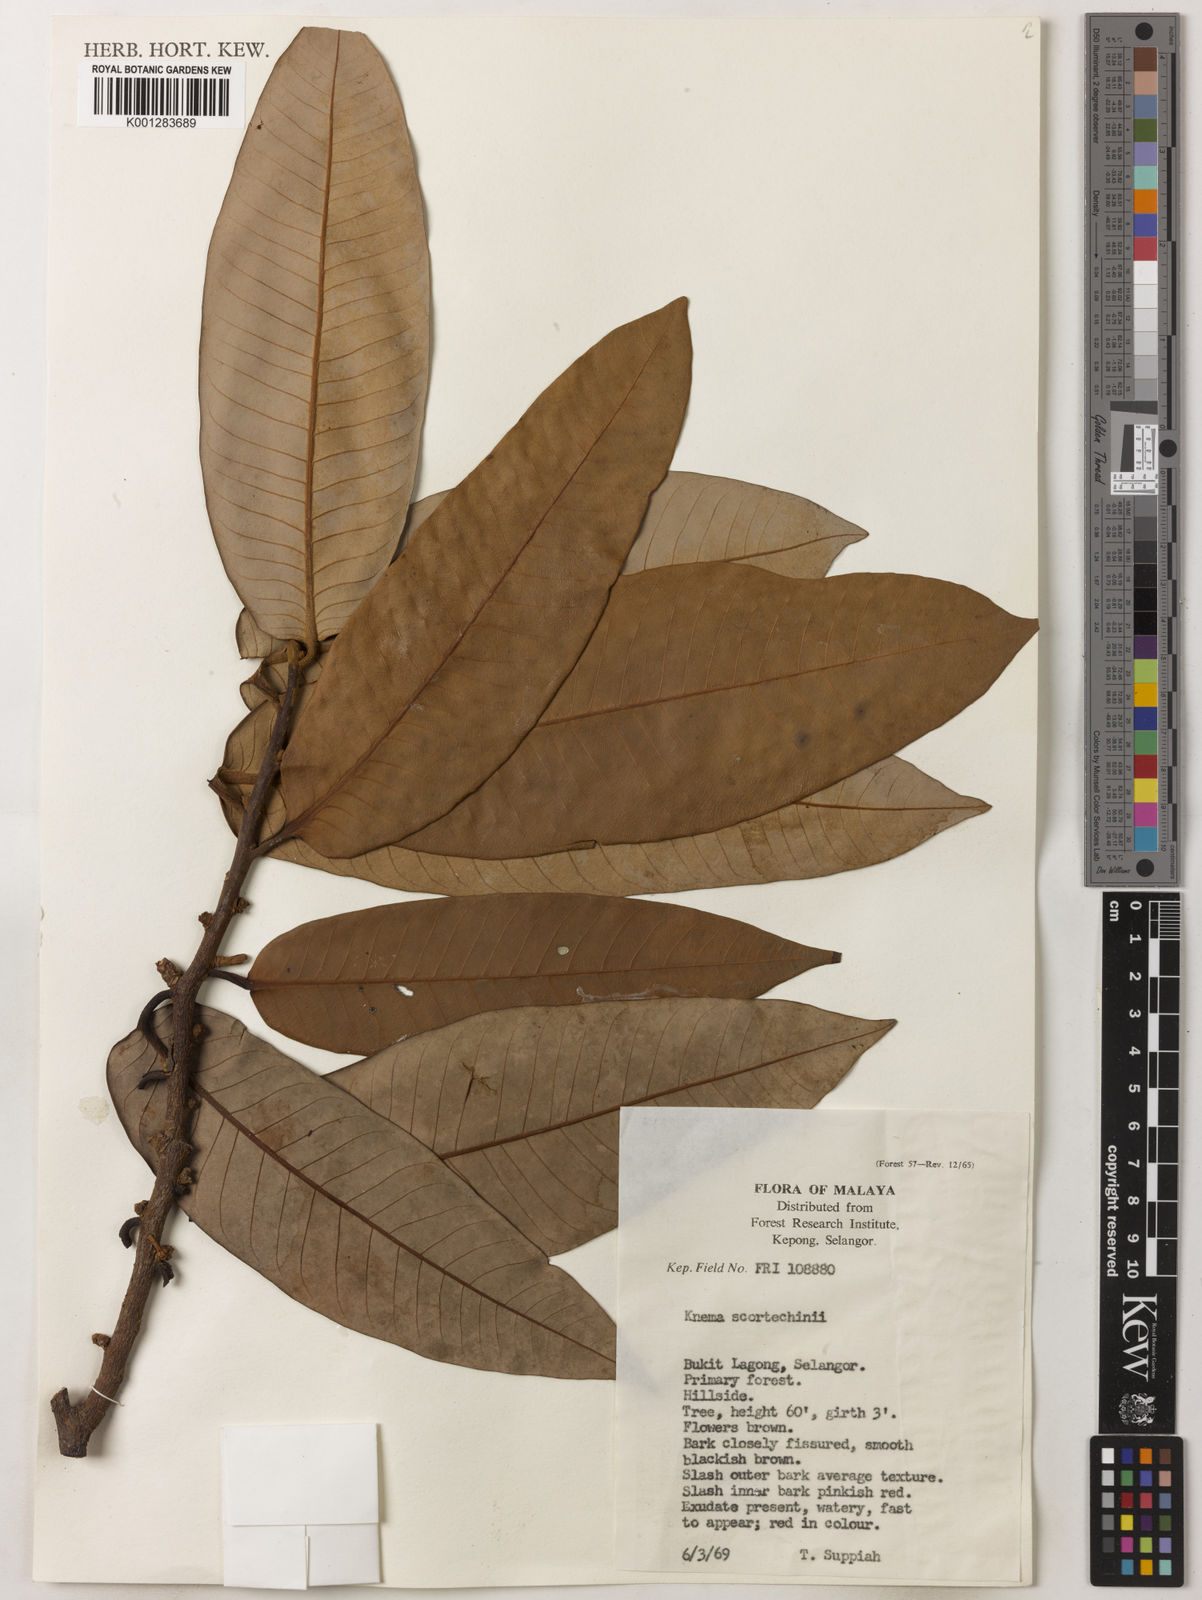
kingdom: Plantae
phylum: Tracheophyta
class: Magnoliopsida
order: Magnoliales
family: Myristicaceae
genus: Knema
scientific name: Knema scortechinii
